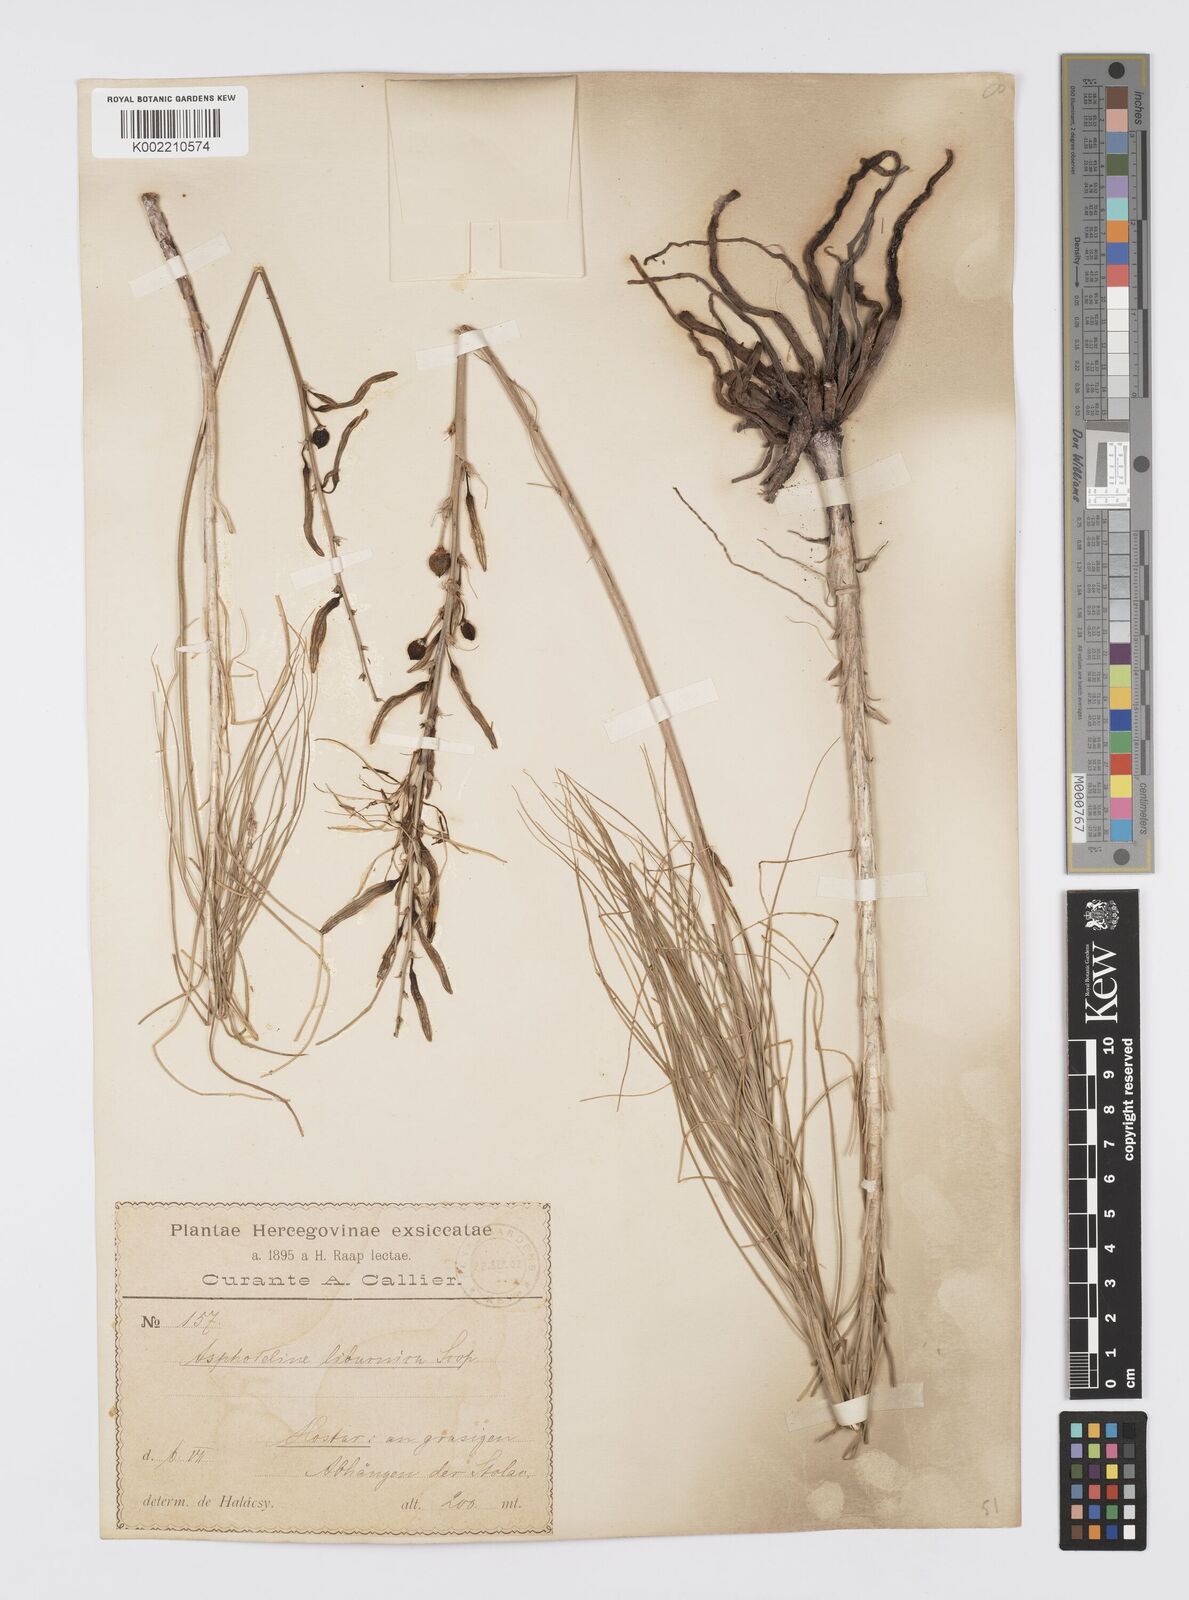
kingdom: Plantae
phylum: Tracheophyta
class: Liliopsida
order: Asparagales
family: Asphodelaceae
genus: Asphodeline
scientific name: Asphodeline liburnica
